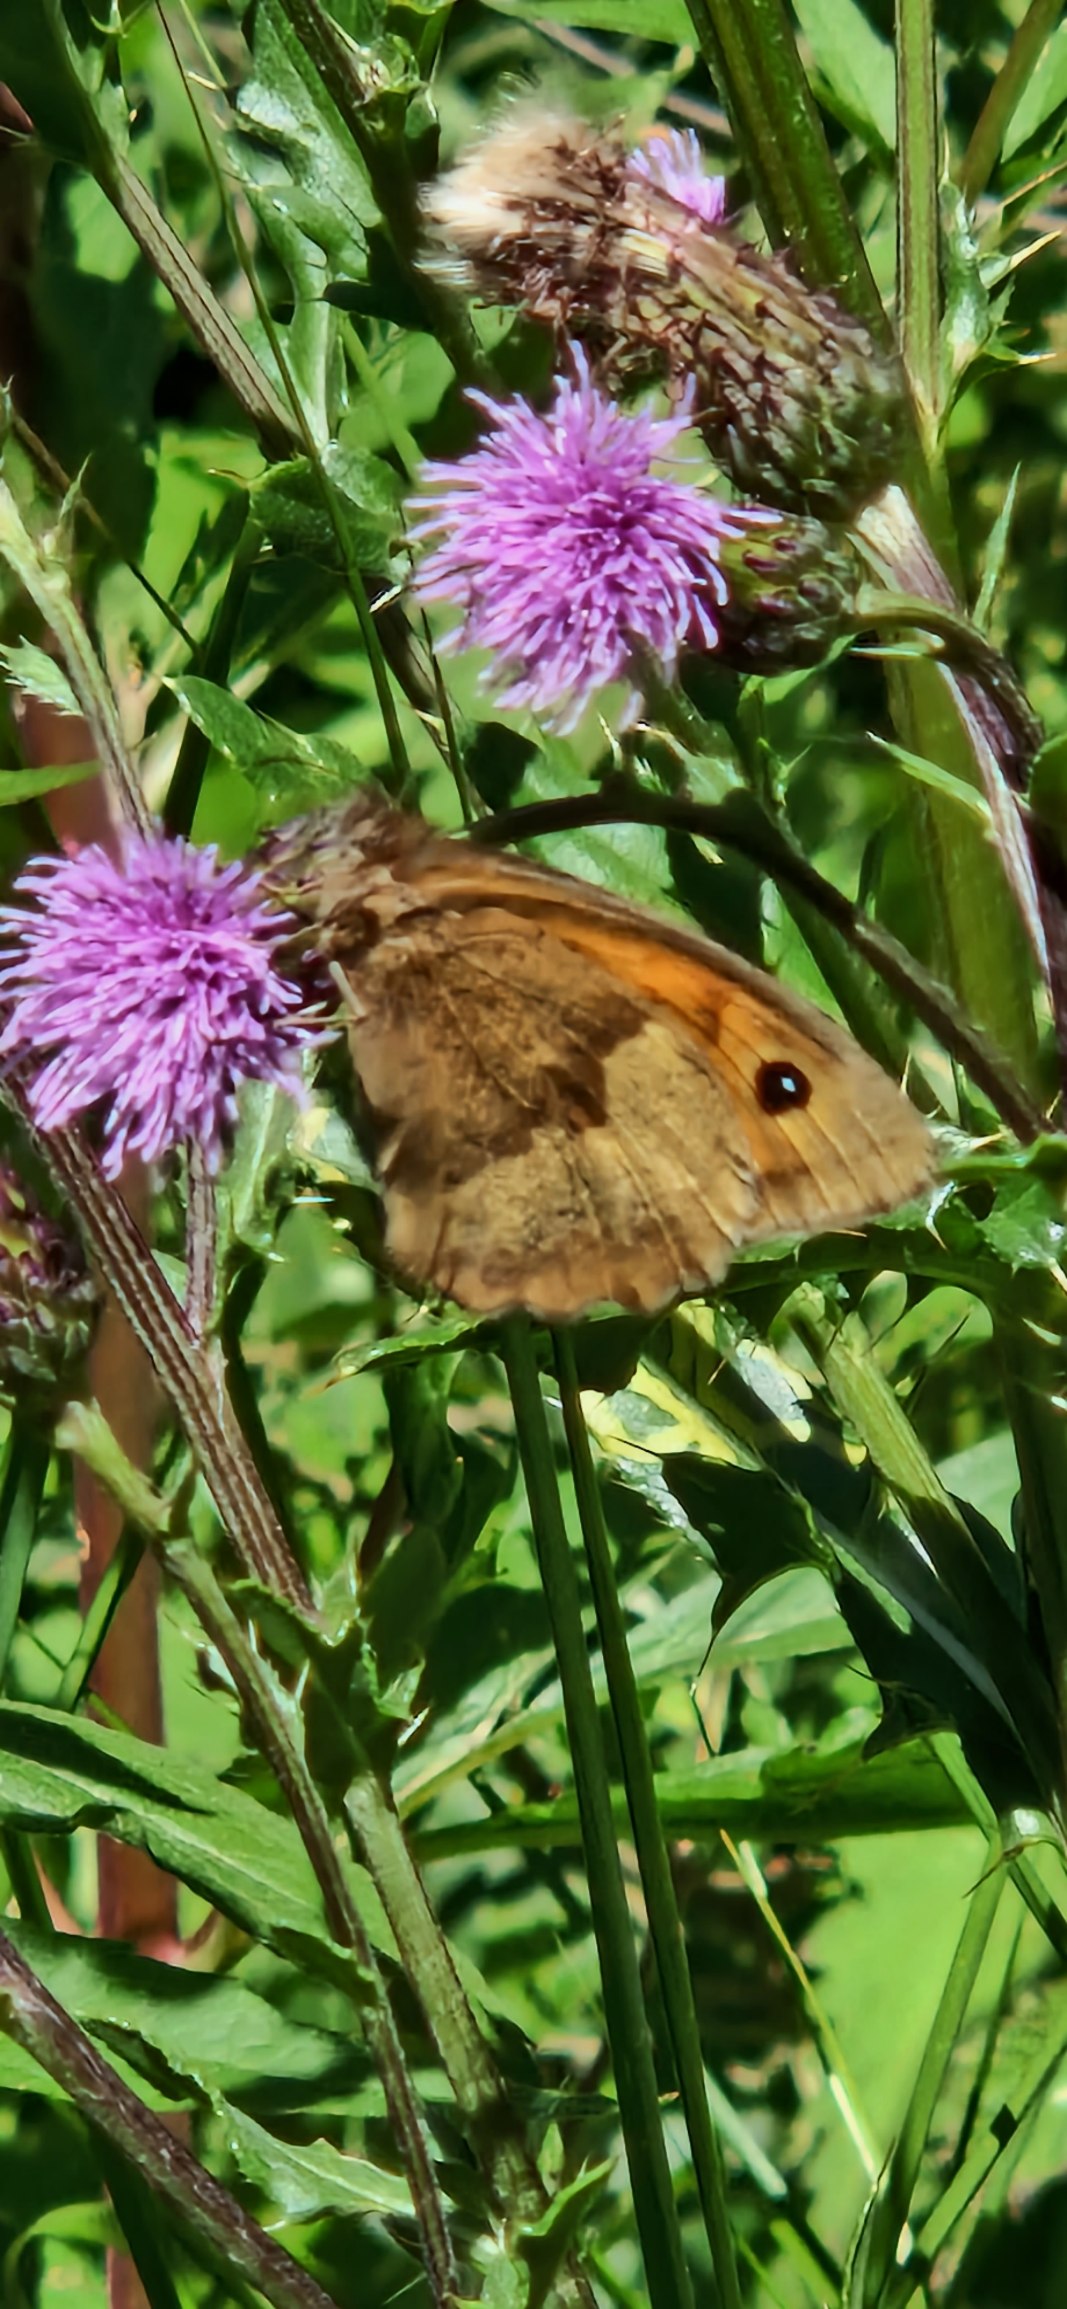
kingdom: Animalia
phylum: Arthropoda
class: Insecta
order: Lepidoptera
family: Nymphalidae
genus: Maniola
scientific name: Maniola jurtina
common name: Græsrandøje
